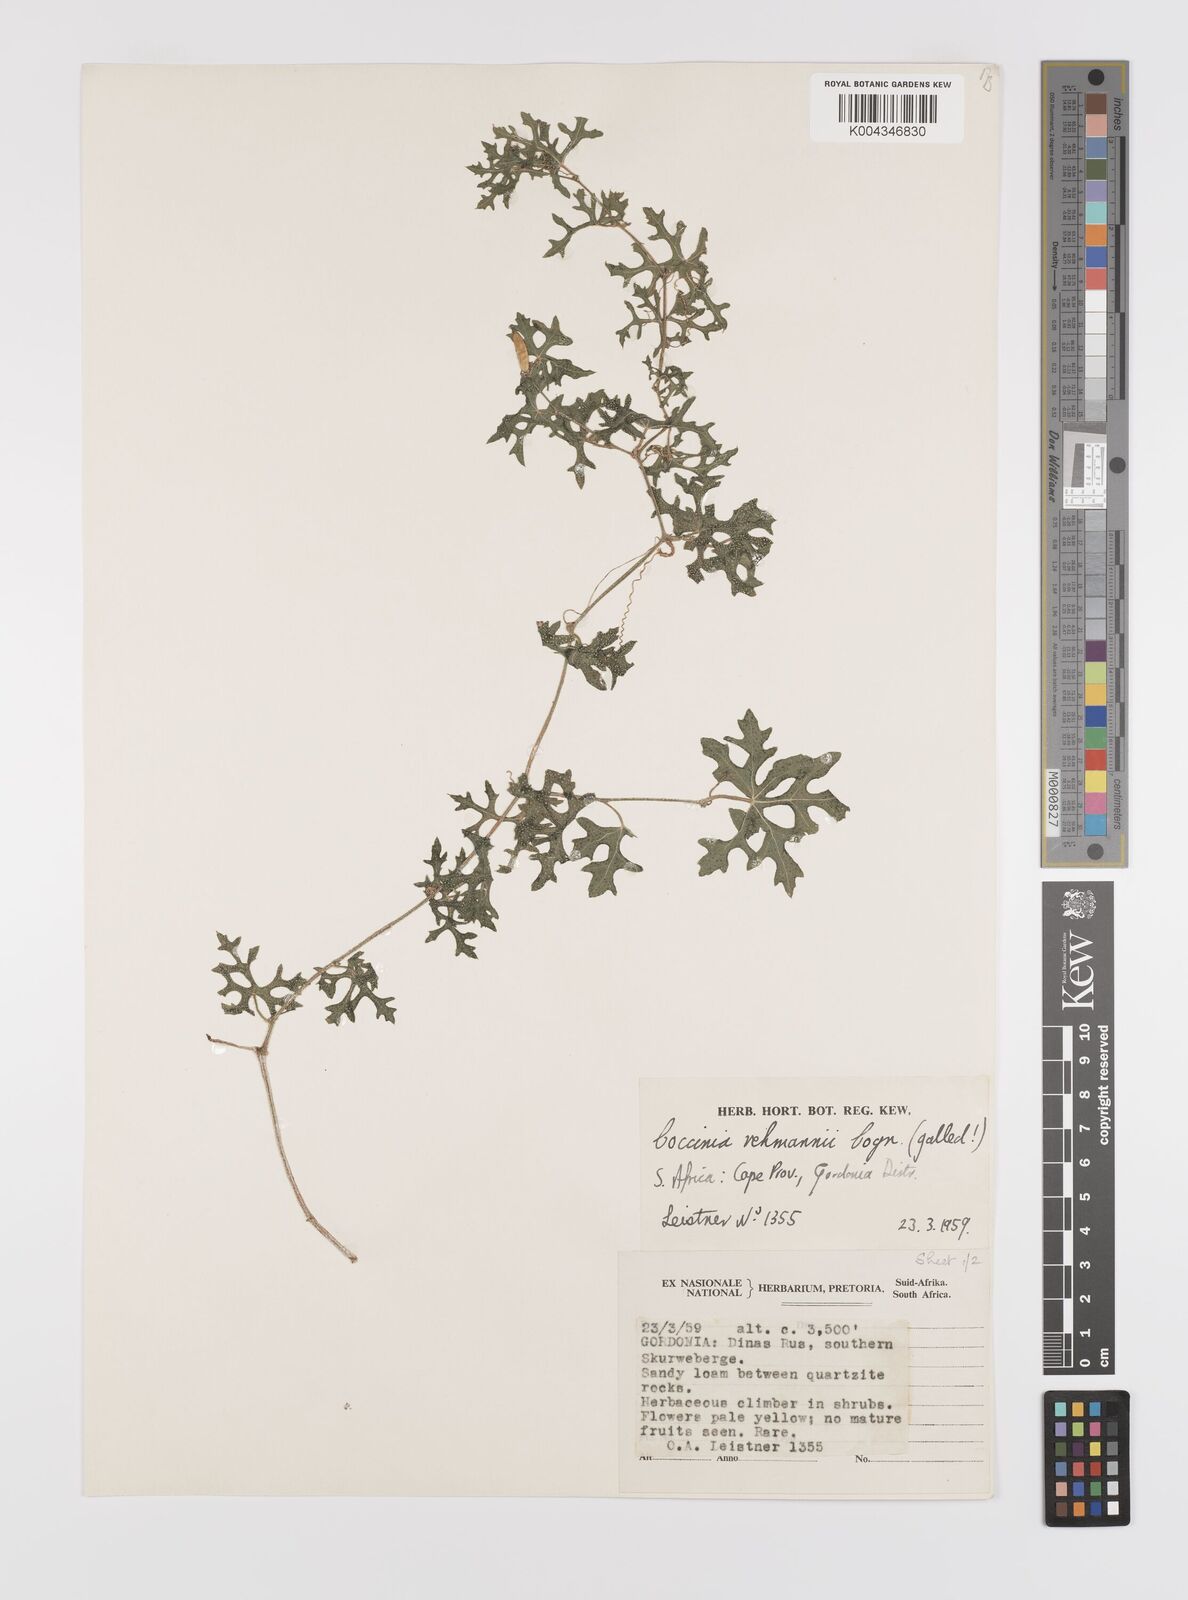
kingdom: Plantae
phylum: Tracheophyta
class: Magnoliopsida
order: Cucurbitales
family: Cucurbitaceae
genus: Coccinia
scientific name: Coccinia rehmannii
